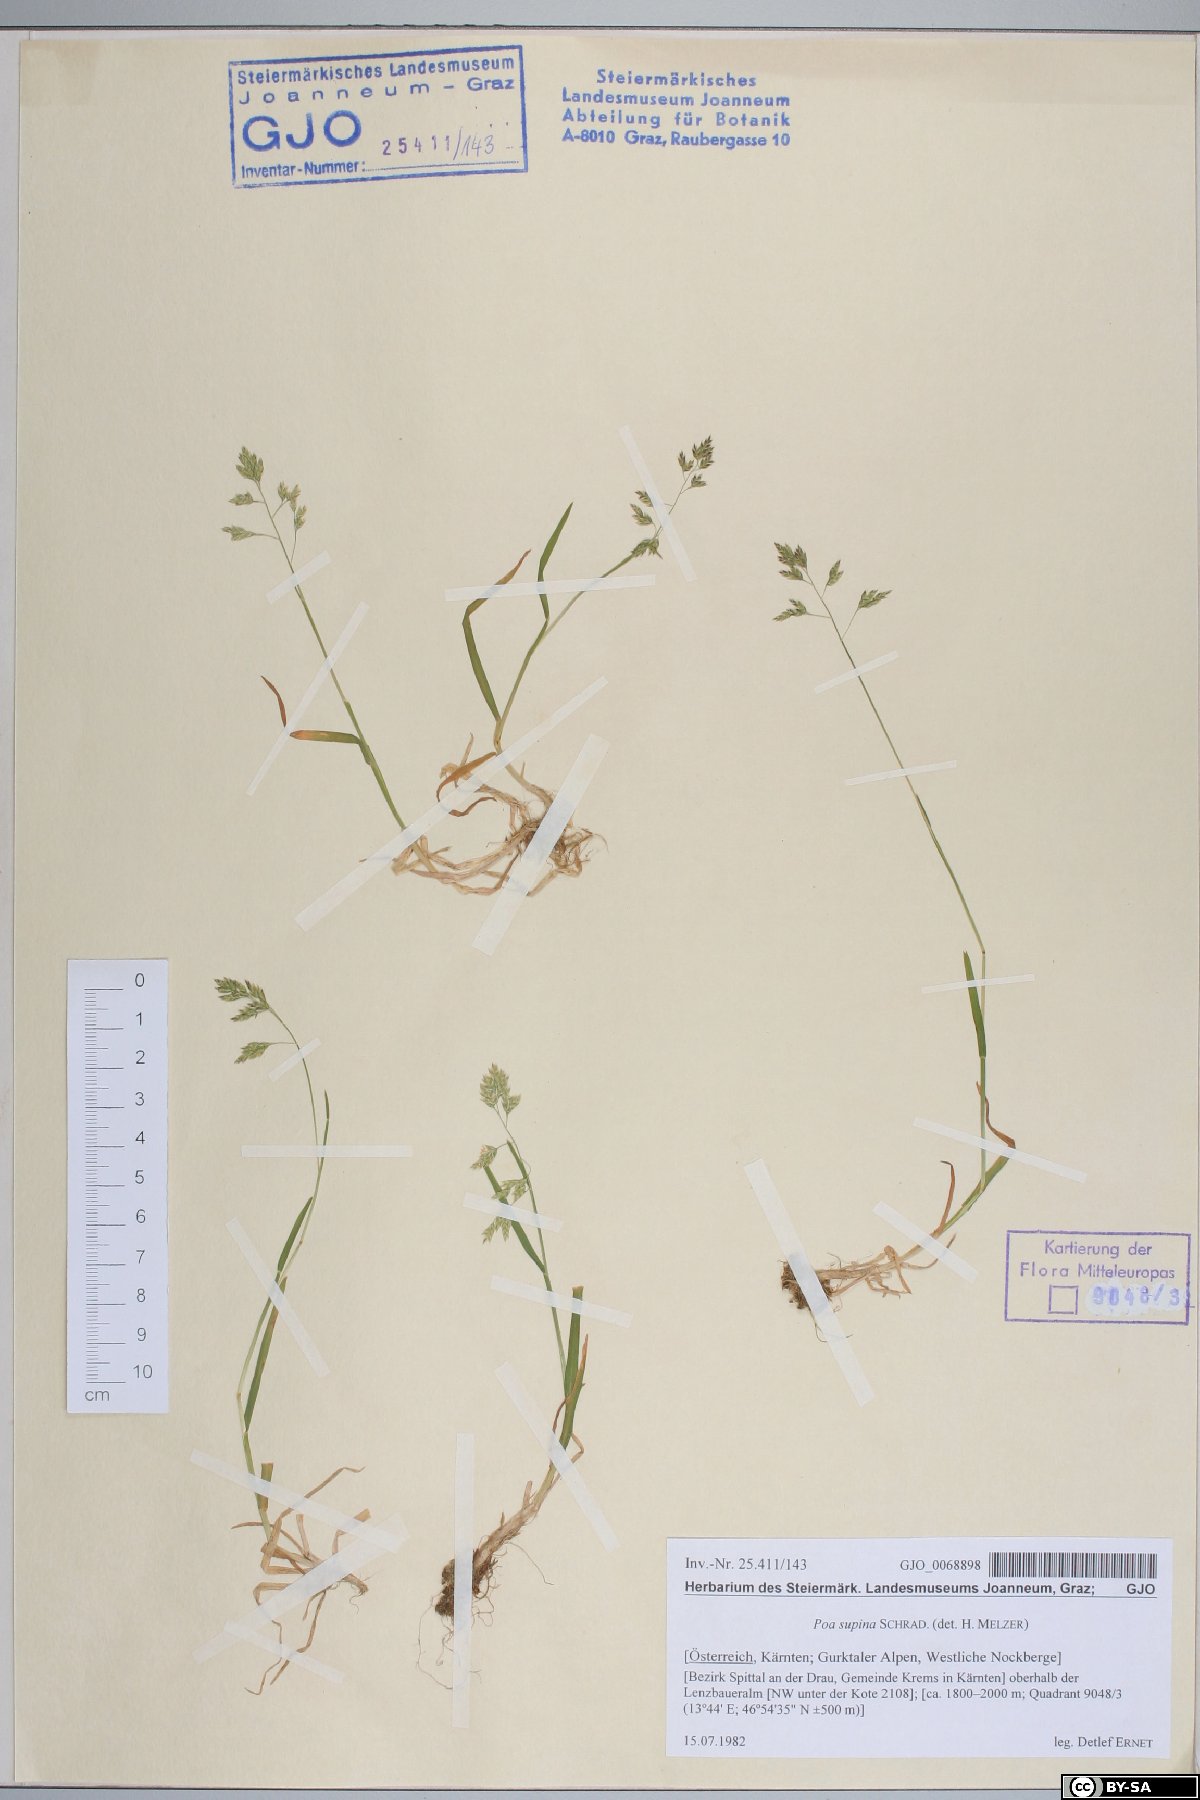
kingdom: Plantae
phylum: Tracheophyta
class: Liliopsida
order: Poales
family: Poaceae
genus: Poa
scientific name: Poa supina
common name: Supina bluegrass
